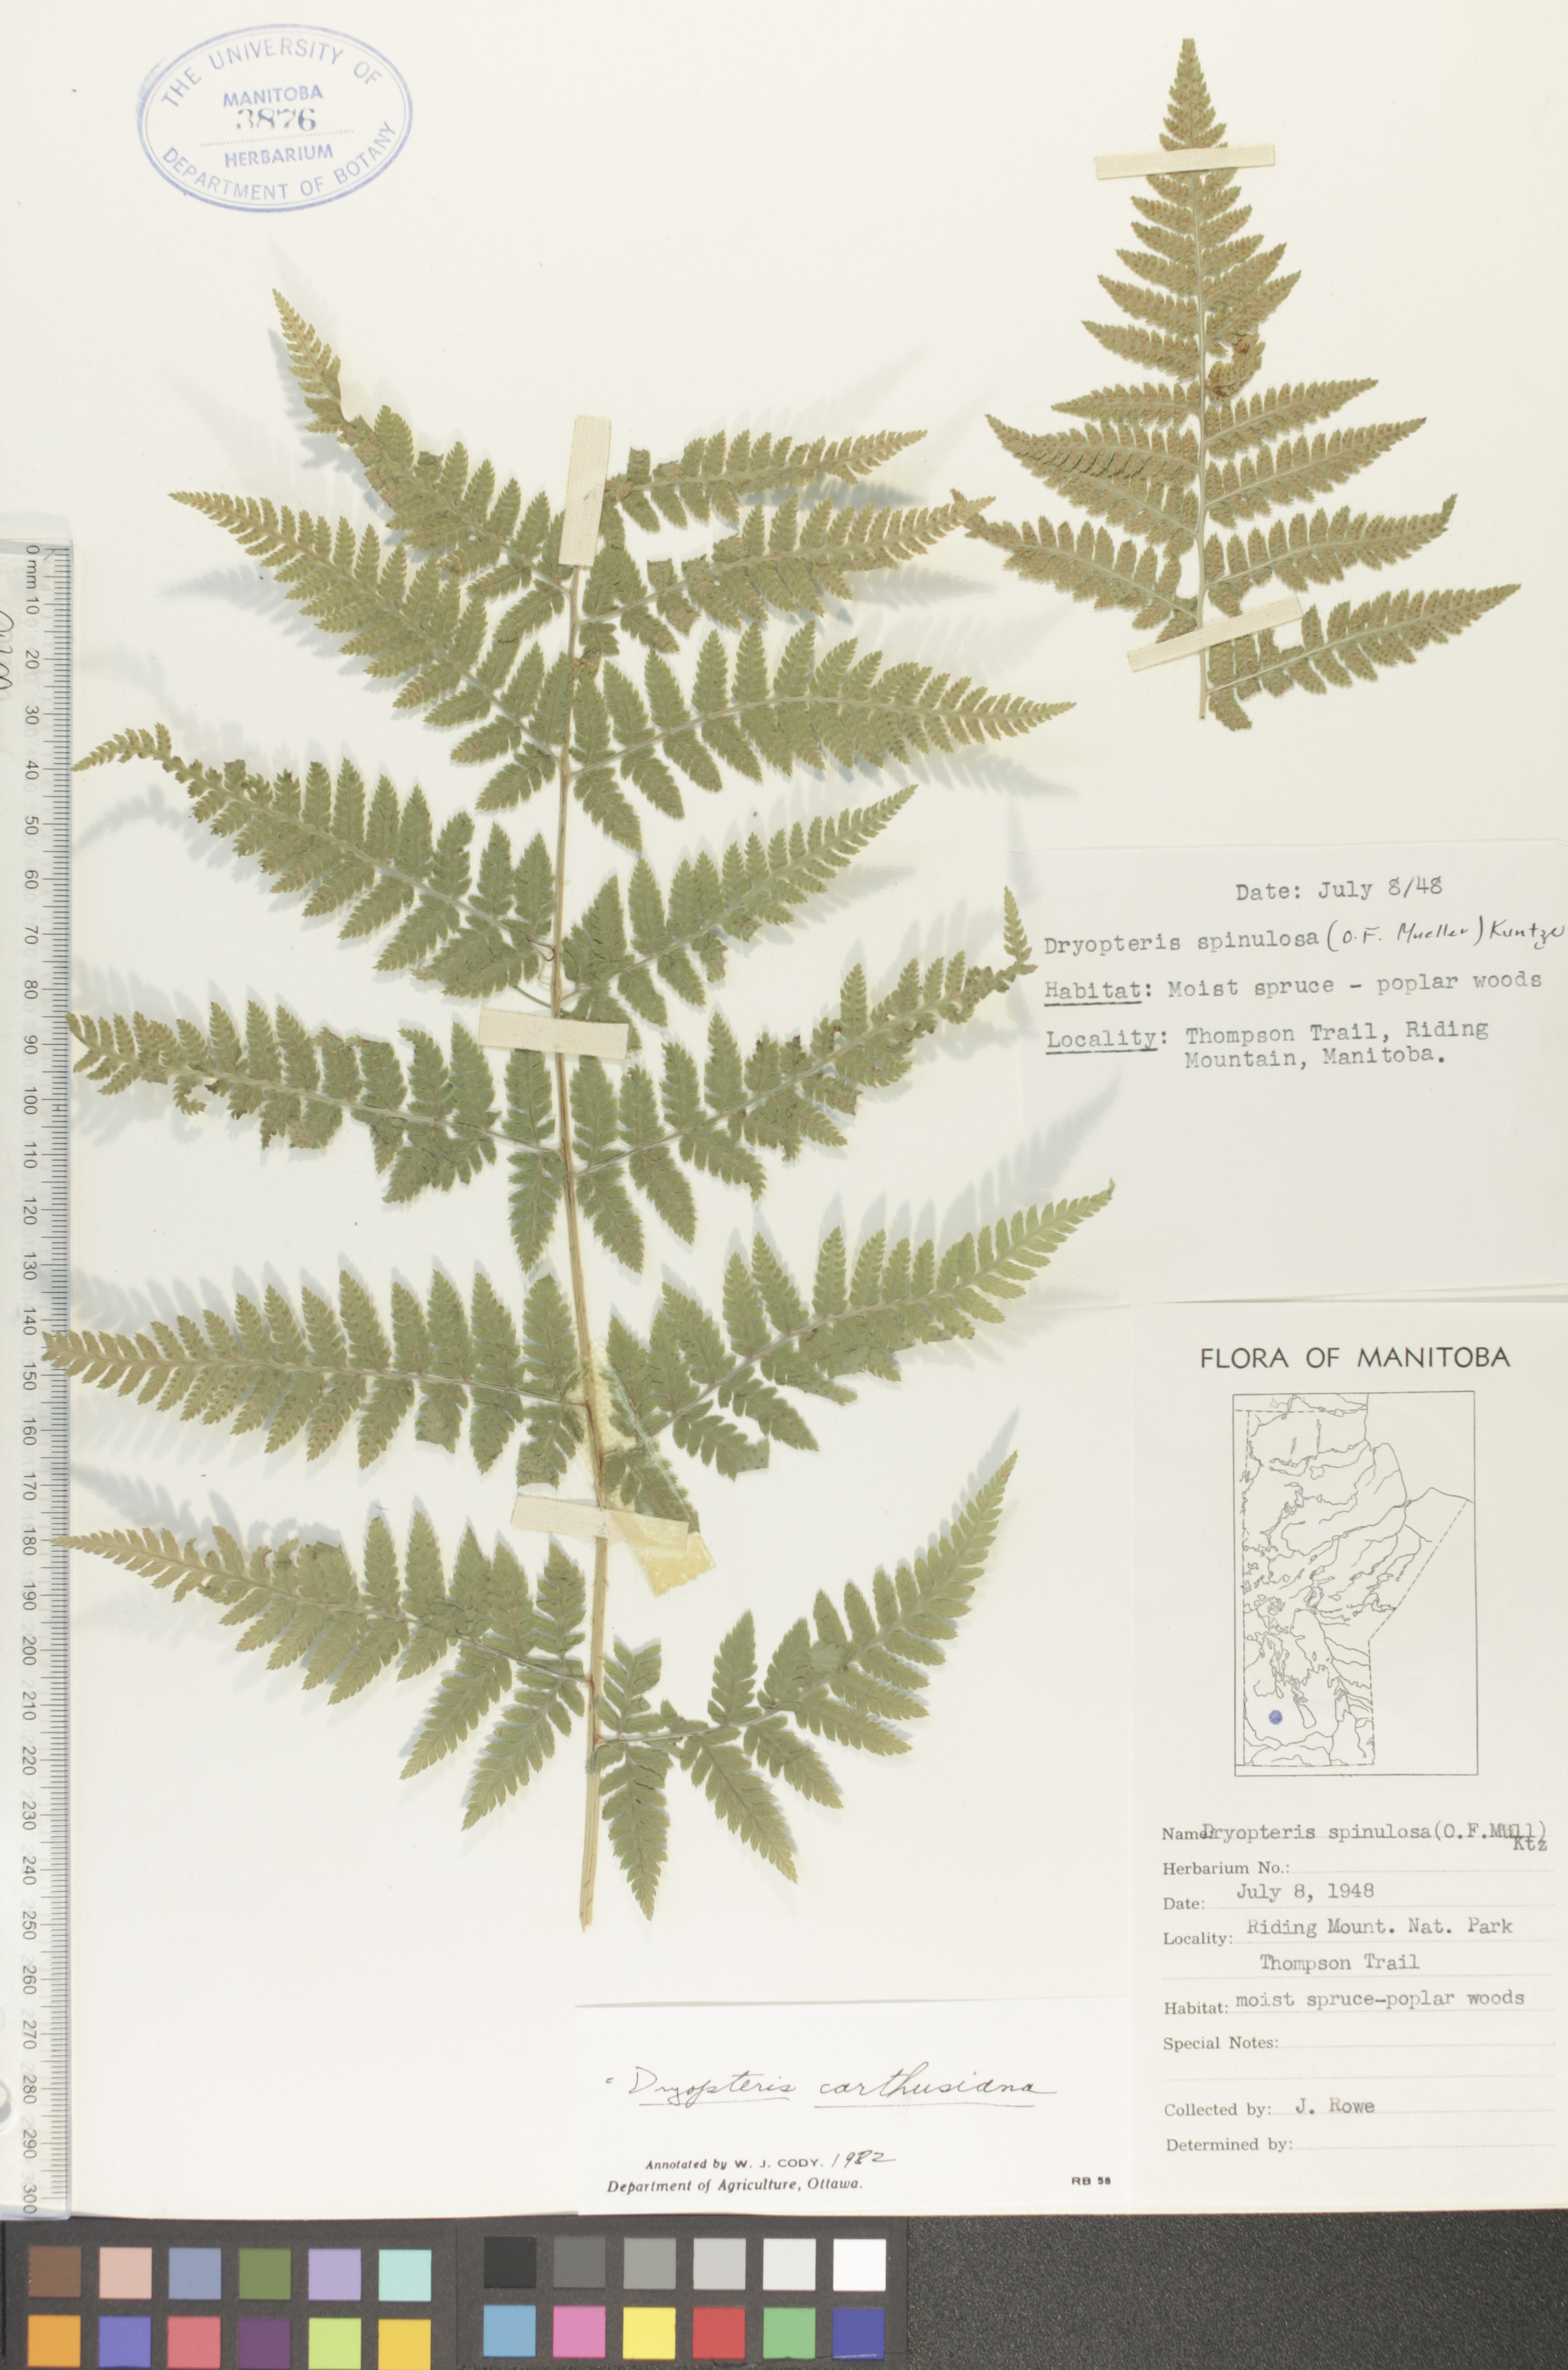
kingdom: Plantae
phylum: Tracheophyta
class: Polypodiopsida
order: Polypodiales
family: Dryopteridaceae
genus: Dryopteris
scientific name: Dryopteris carthusiana
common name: Narrow buckler-fern
